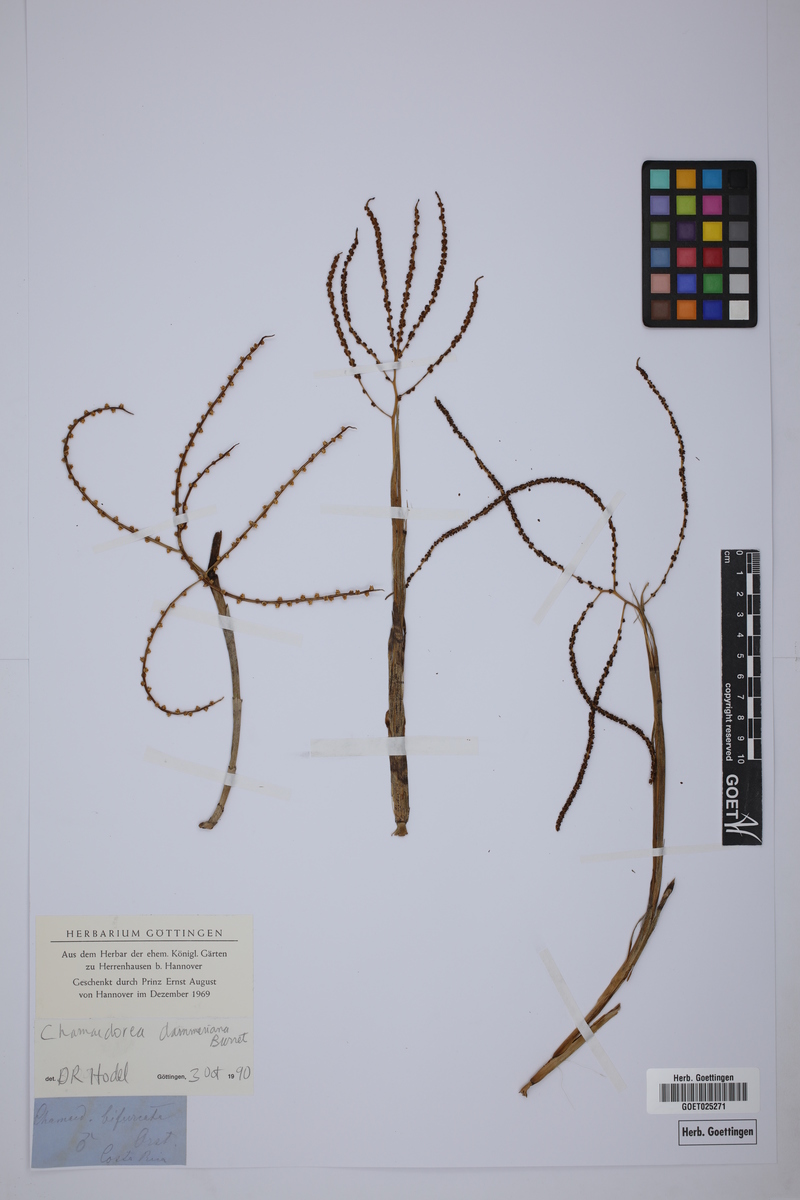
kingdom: Plantae
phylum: Tracheophyta
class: Liliopsida
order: Arecales
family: Arecaceae
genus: Chamaedorea
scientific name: Chamaedorea dammeriana
